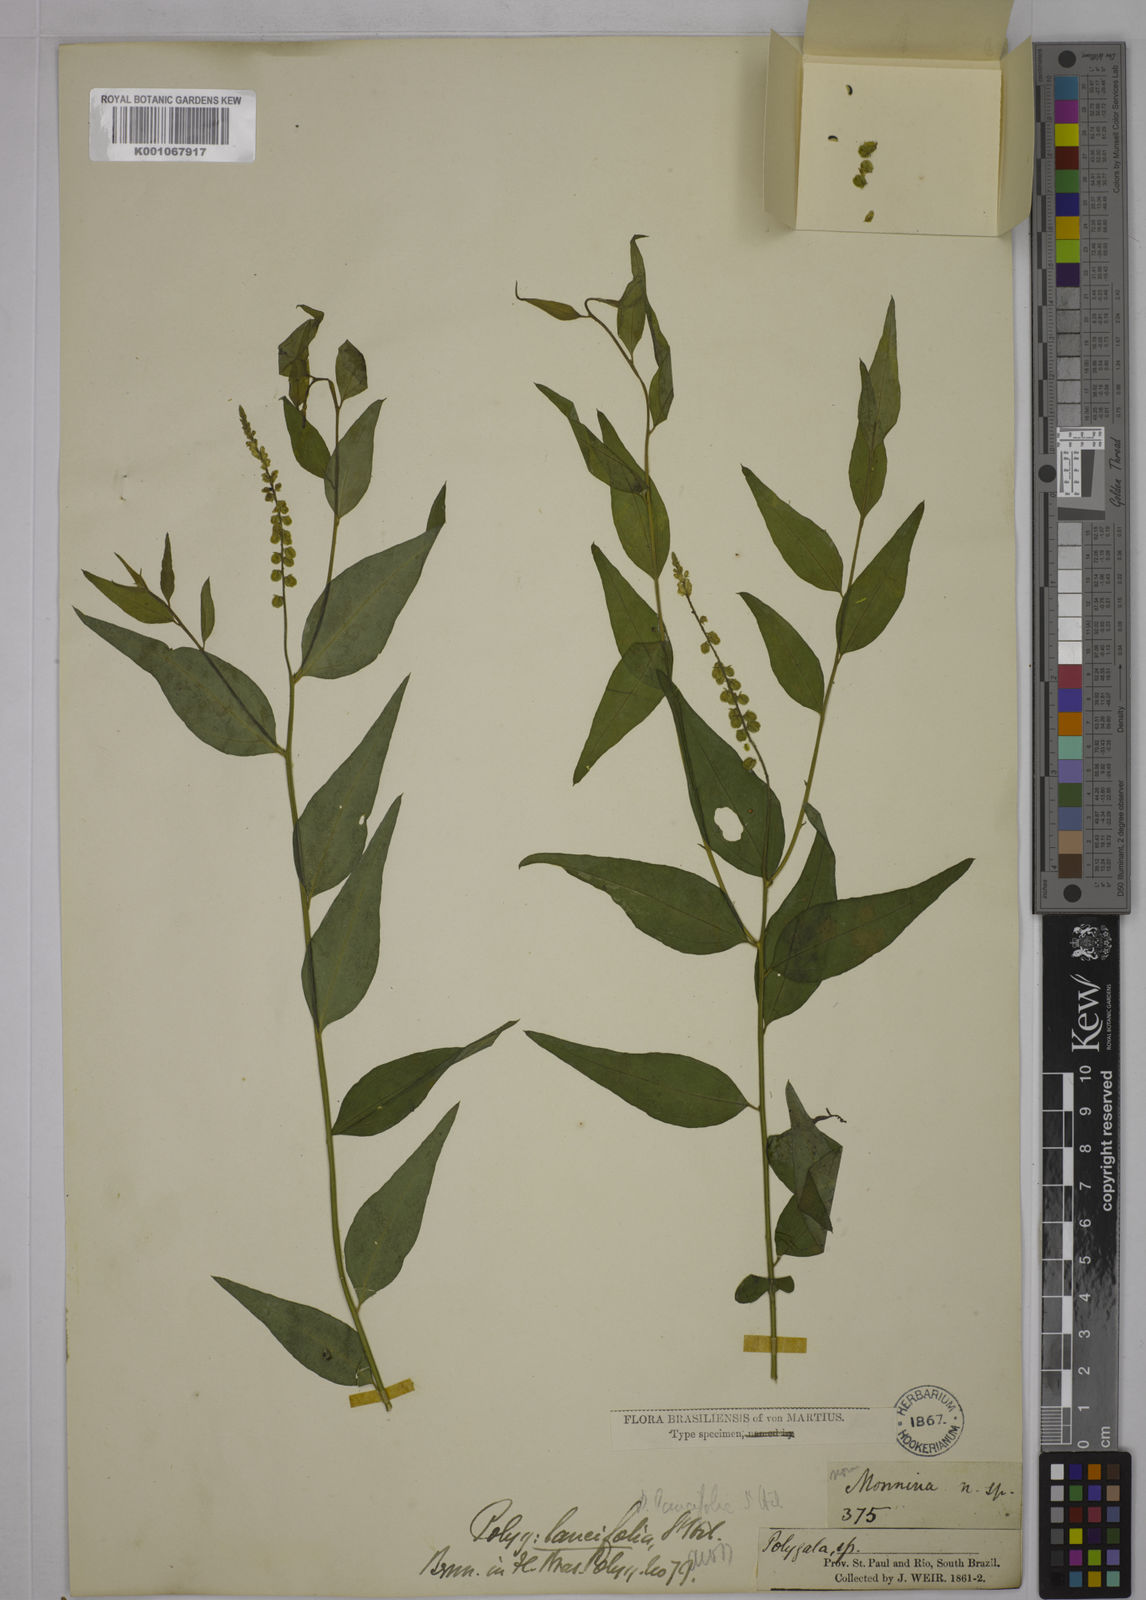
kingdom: Plantae
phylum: Tracheophyta
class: Magnoliopsida
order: Fabales
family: Polygalaceae
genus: Polygala
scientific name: Polygala lancifolia
